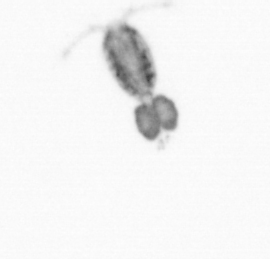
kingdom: Animalia
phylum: Arthropoda
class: Copepoda
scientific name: Copepoda
